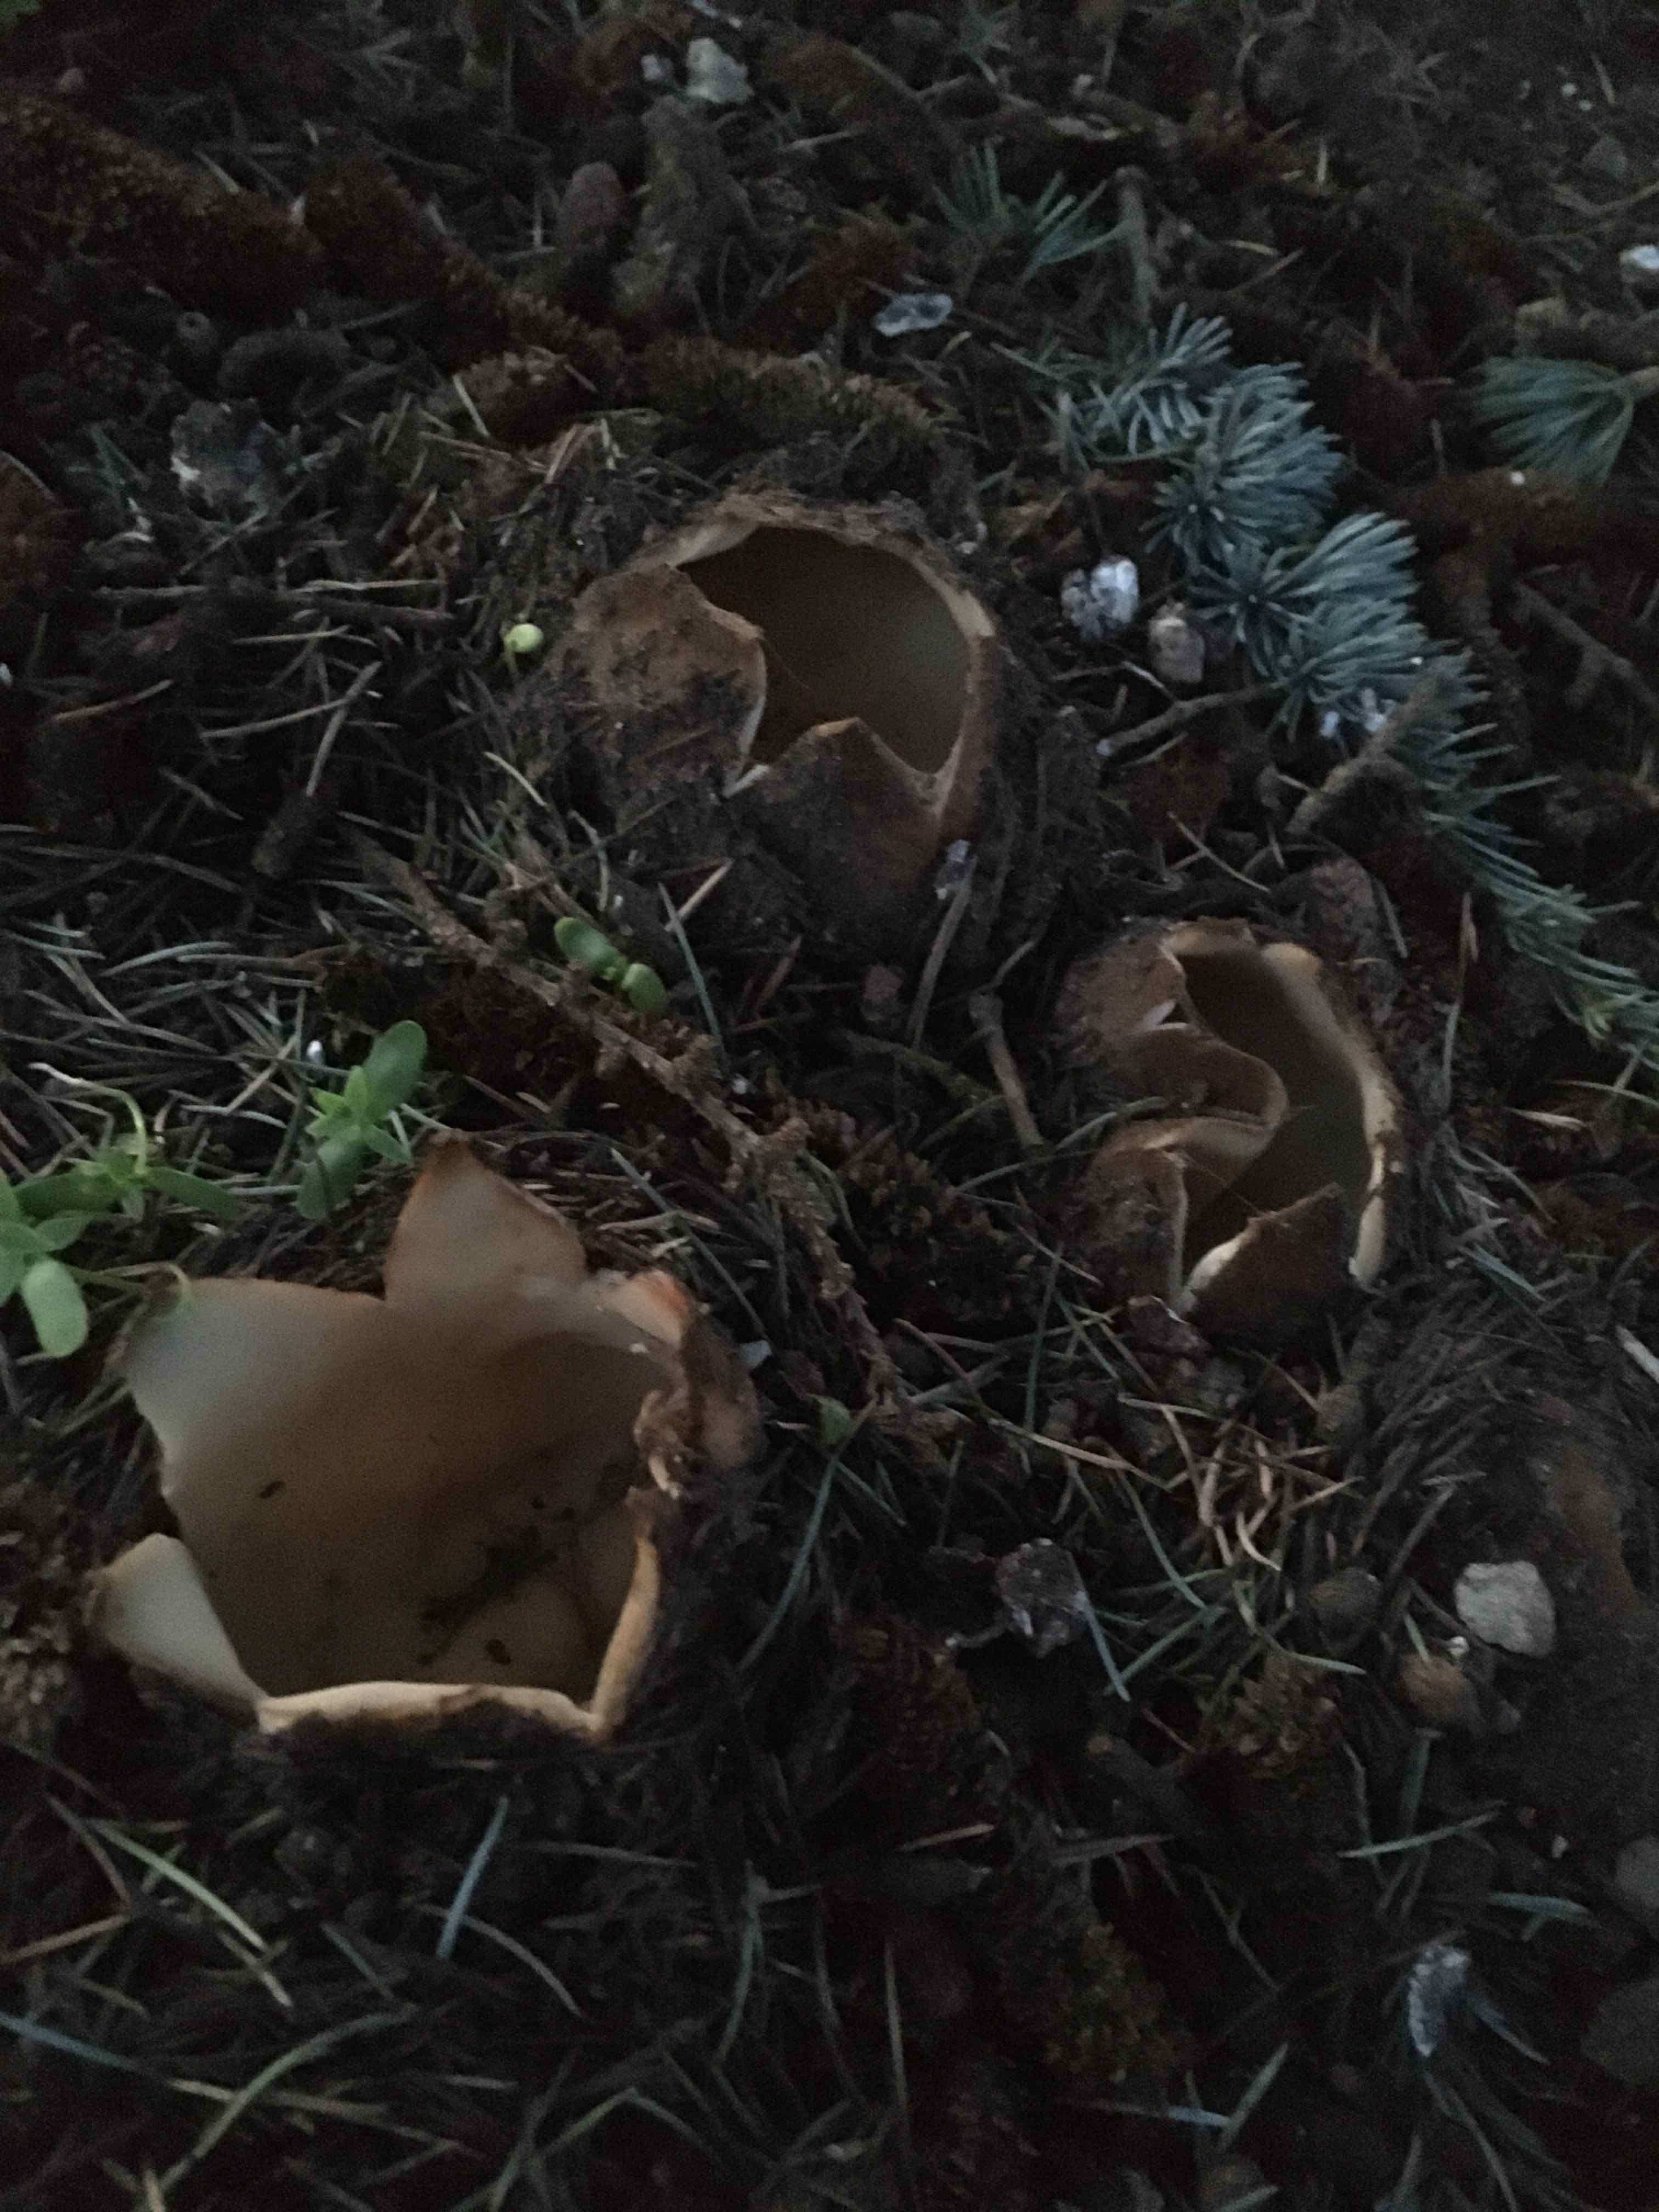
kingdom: Fungi
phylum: Ascomycota
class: Pezizomycetes
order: Pezizales
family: Pyronemataceae
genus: Geopora
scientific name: Geopora sumneriana
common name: vår-jordbæger
